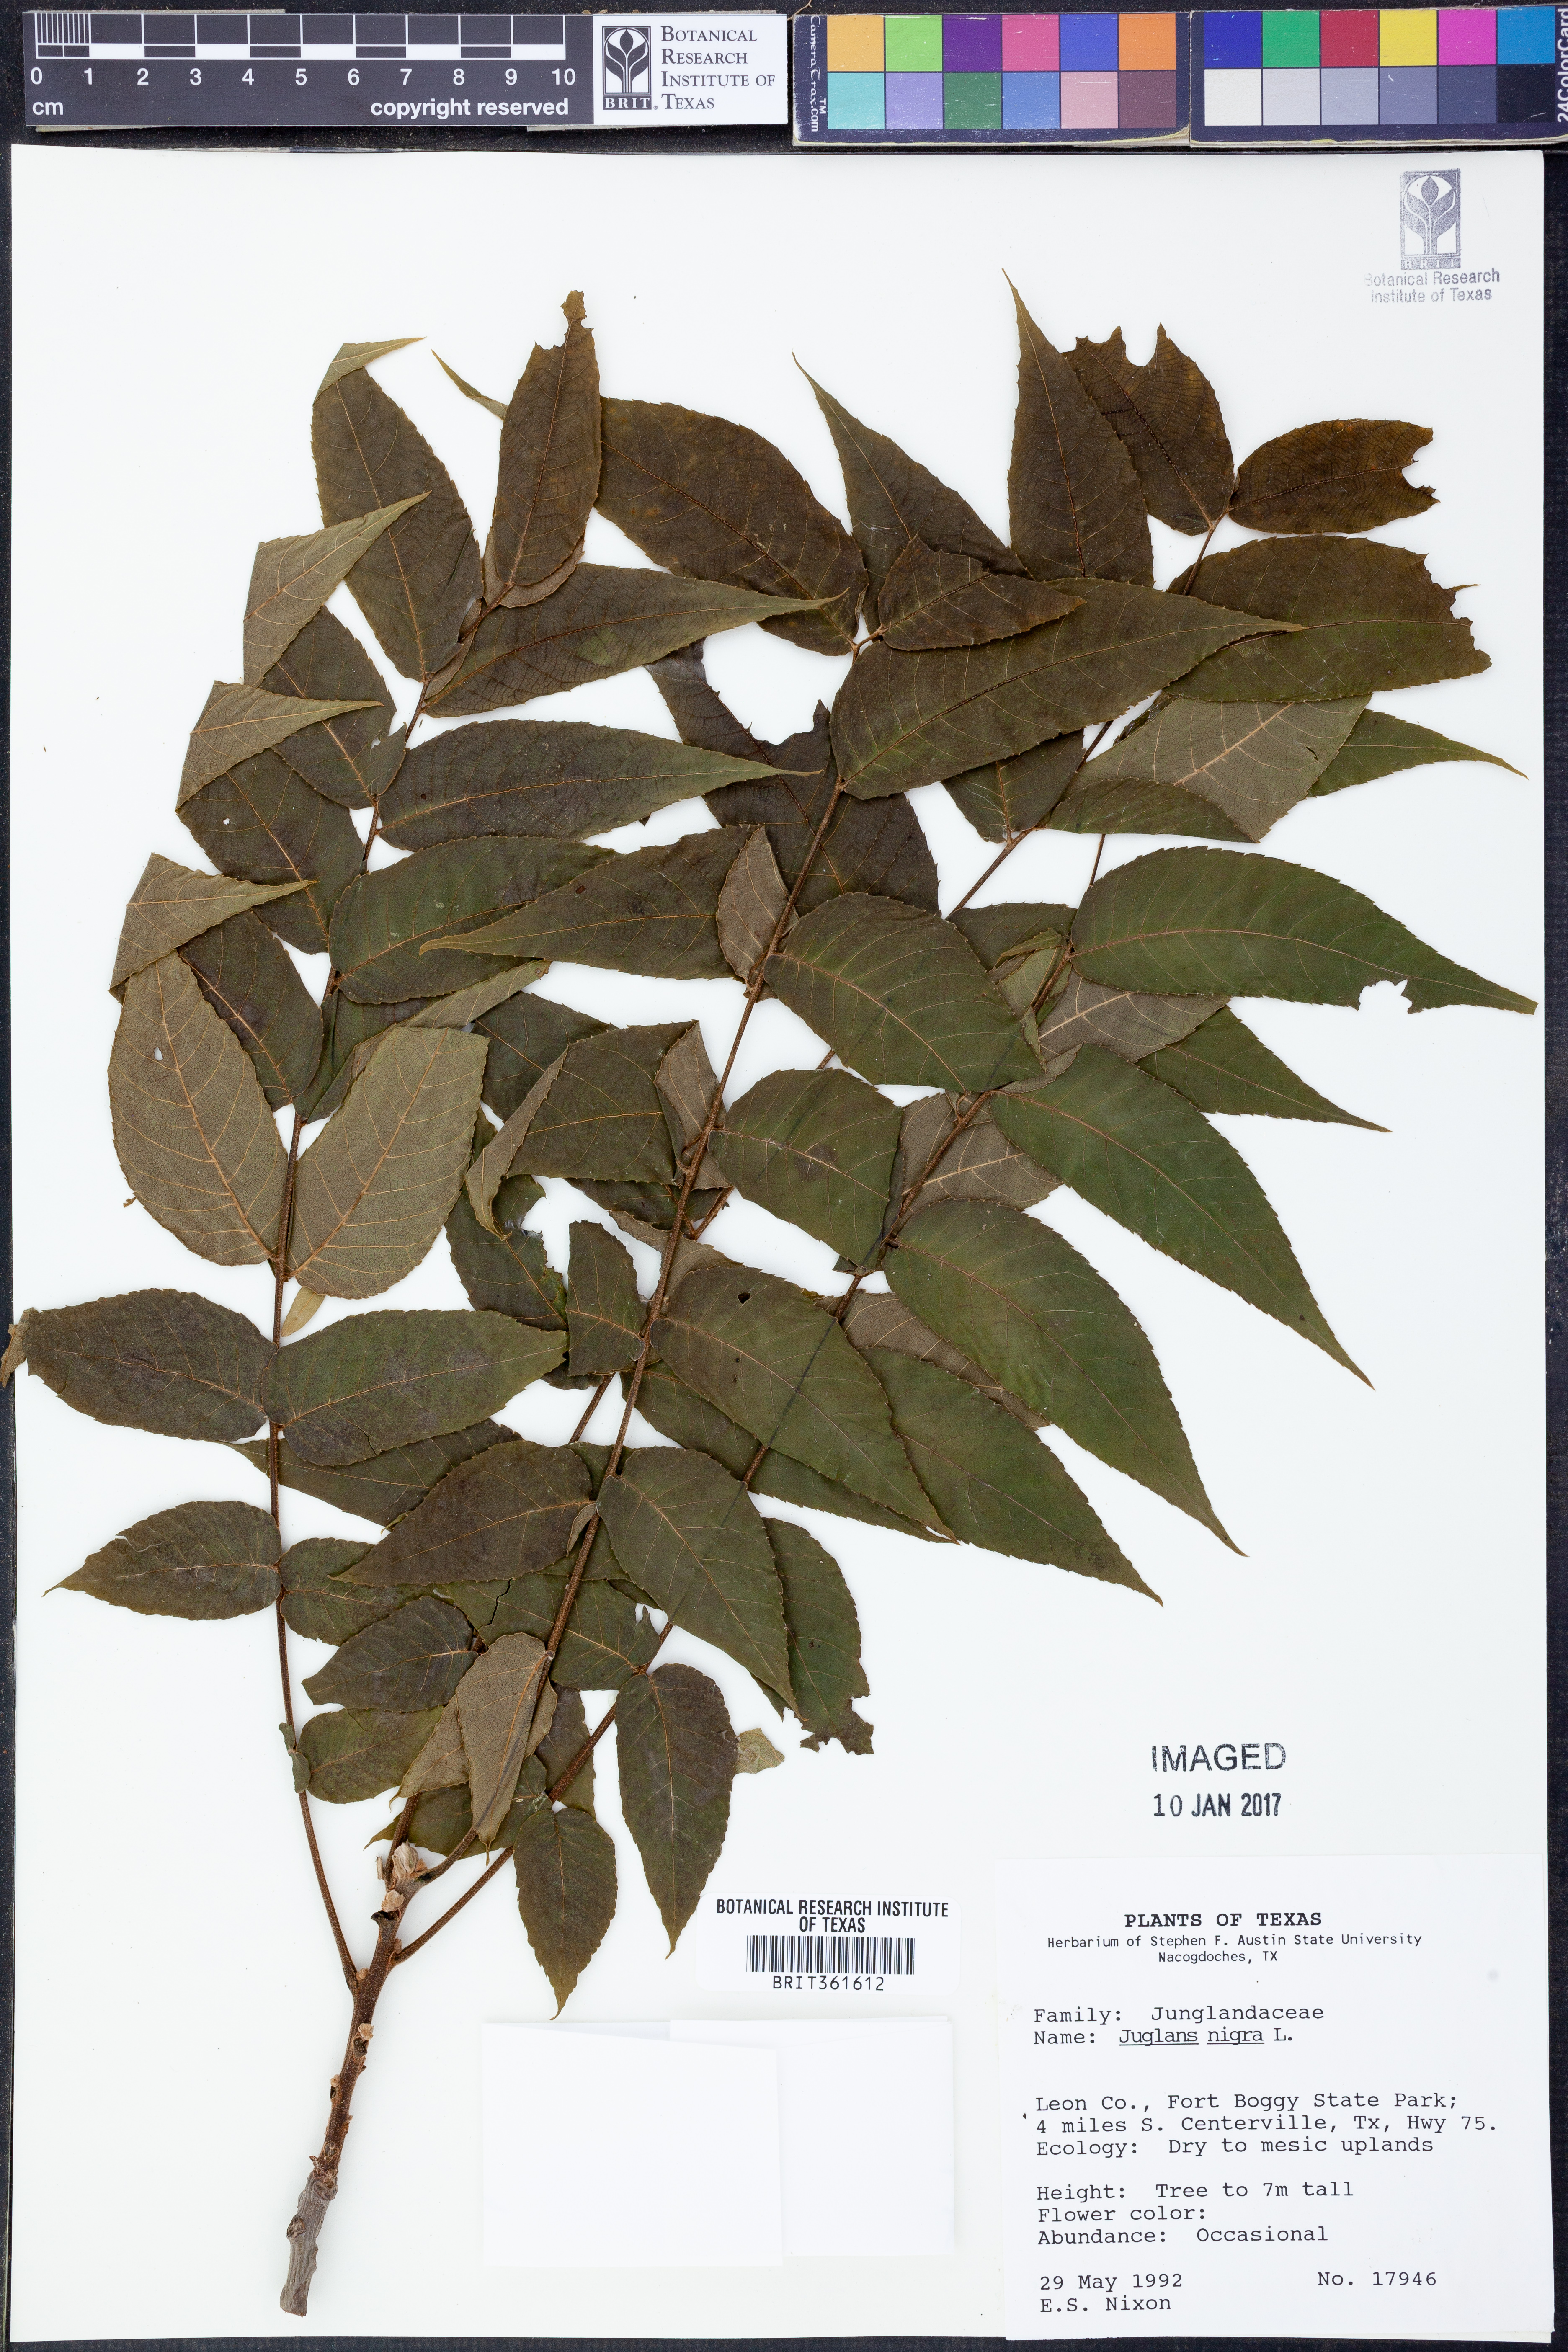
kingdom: Plantae
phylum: Tracheophyta
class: Magnoliopsida
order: Fagales
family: Juglandaceae
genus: Juglans
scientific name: Juglans nigra
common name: Black walnut
